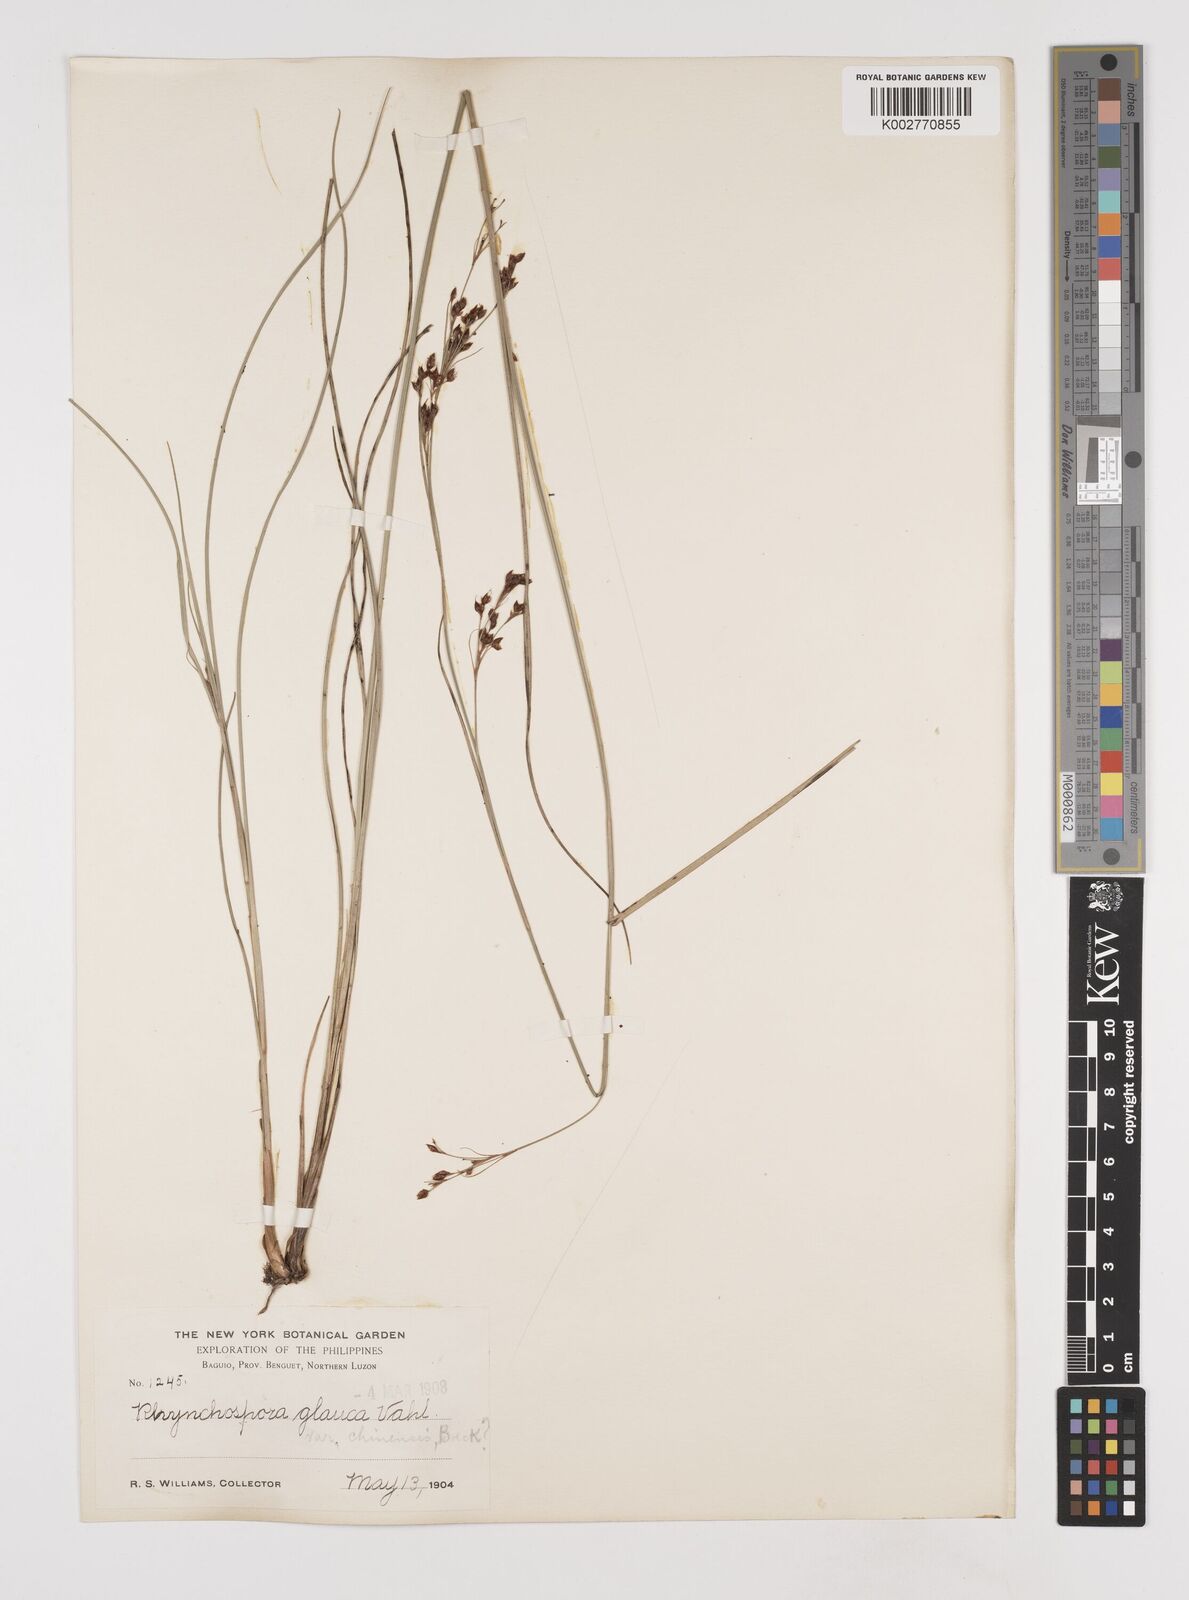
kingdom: Plantae
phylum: Tracheophyta
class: Liliopsida
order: Poales
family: Cyperaceae
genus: Rhynchospora
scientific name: Rhynchospora rugosa
